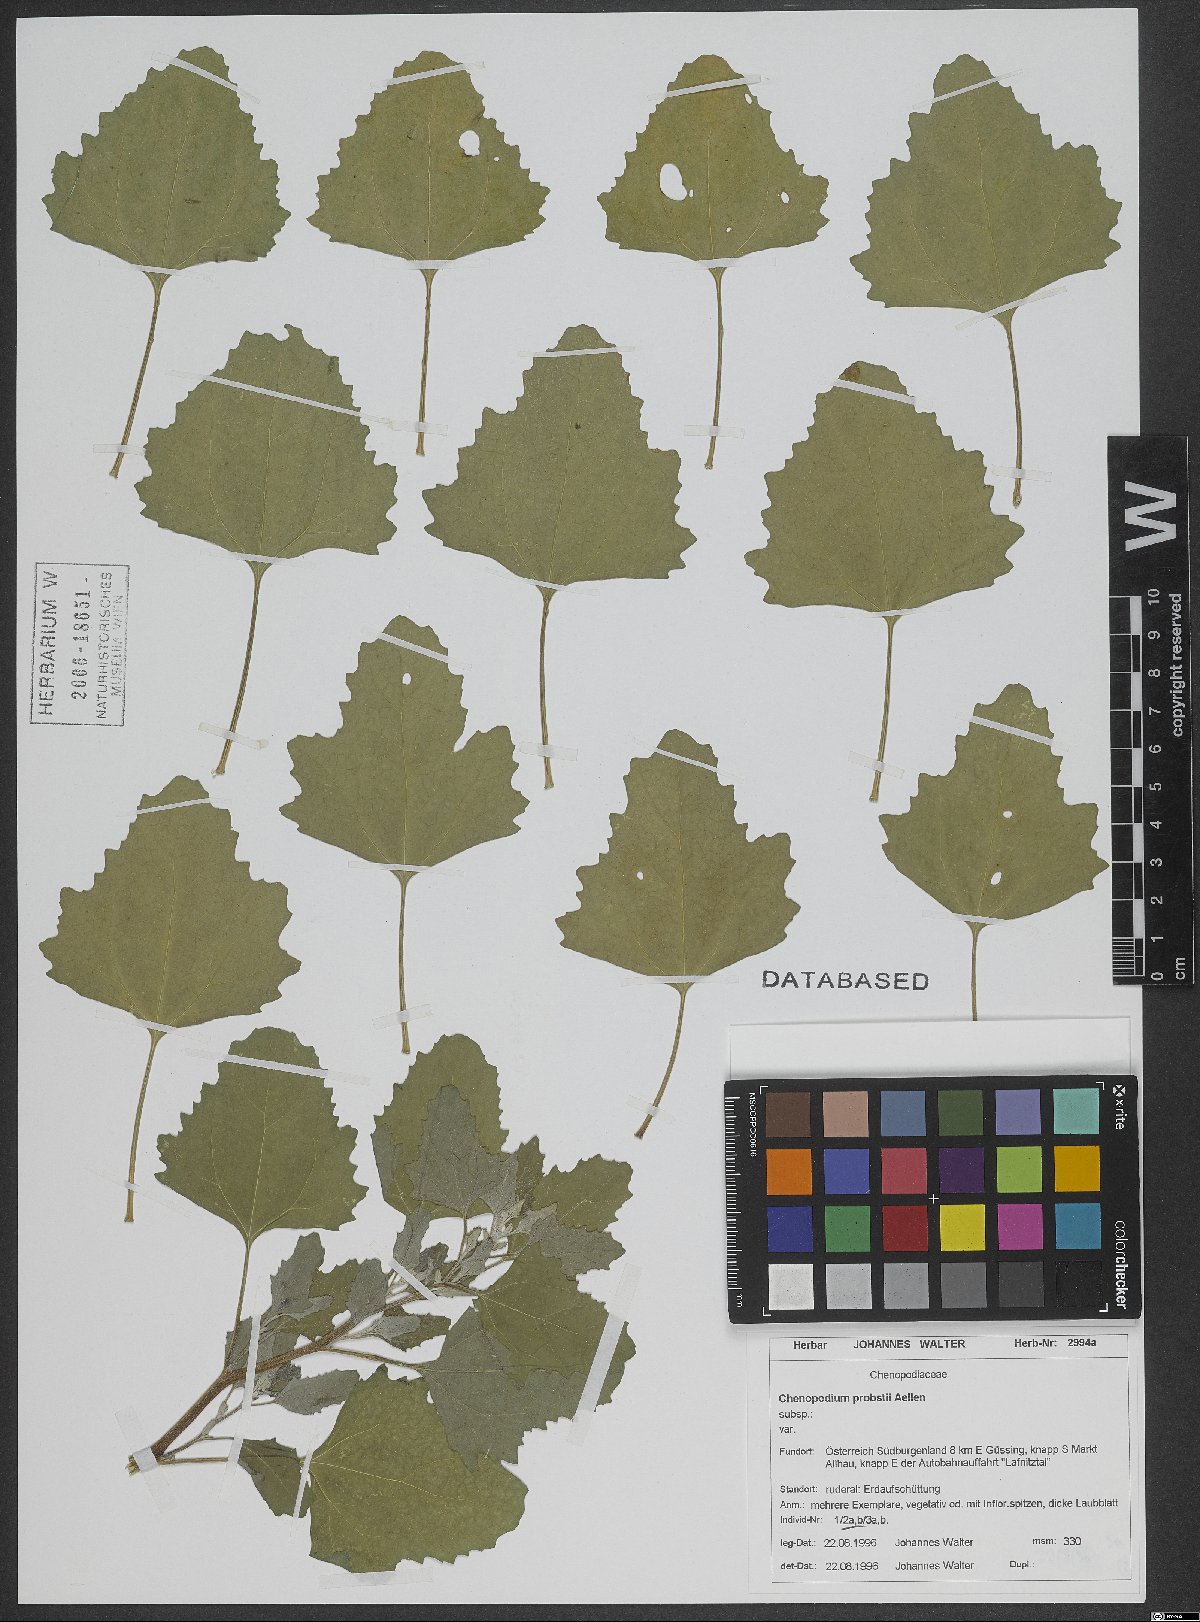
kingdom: Plantae
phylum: Tracheophyta
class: Magnoliopsida
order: Caryophyllales
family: Amaranthaceae
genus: Chenopodium
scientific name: Chenopodium probstii
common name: Probst's goosefoot
